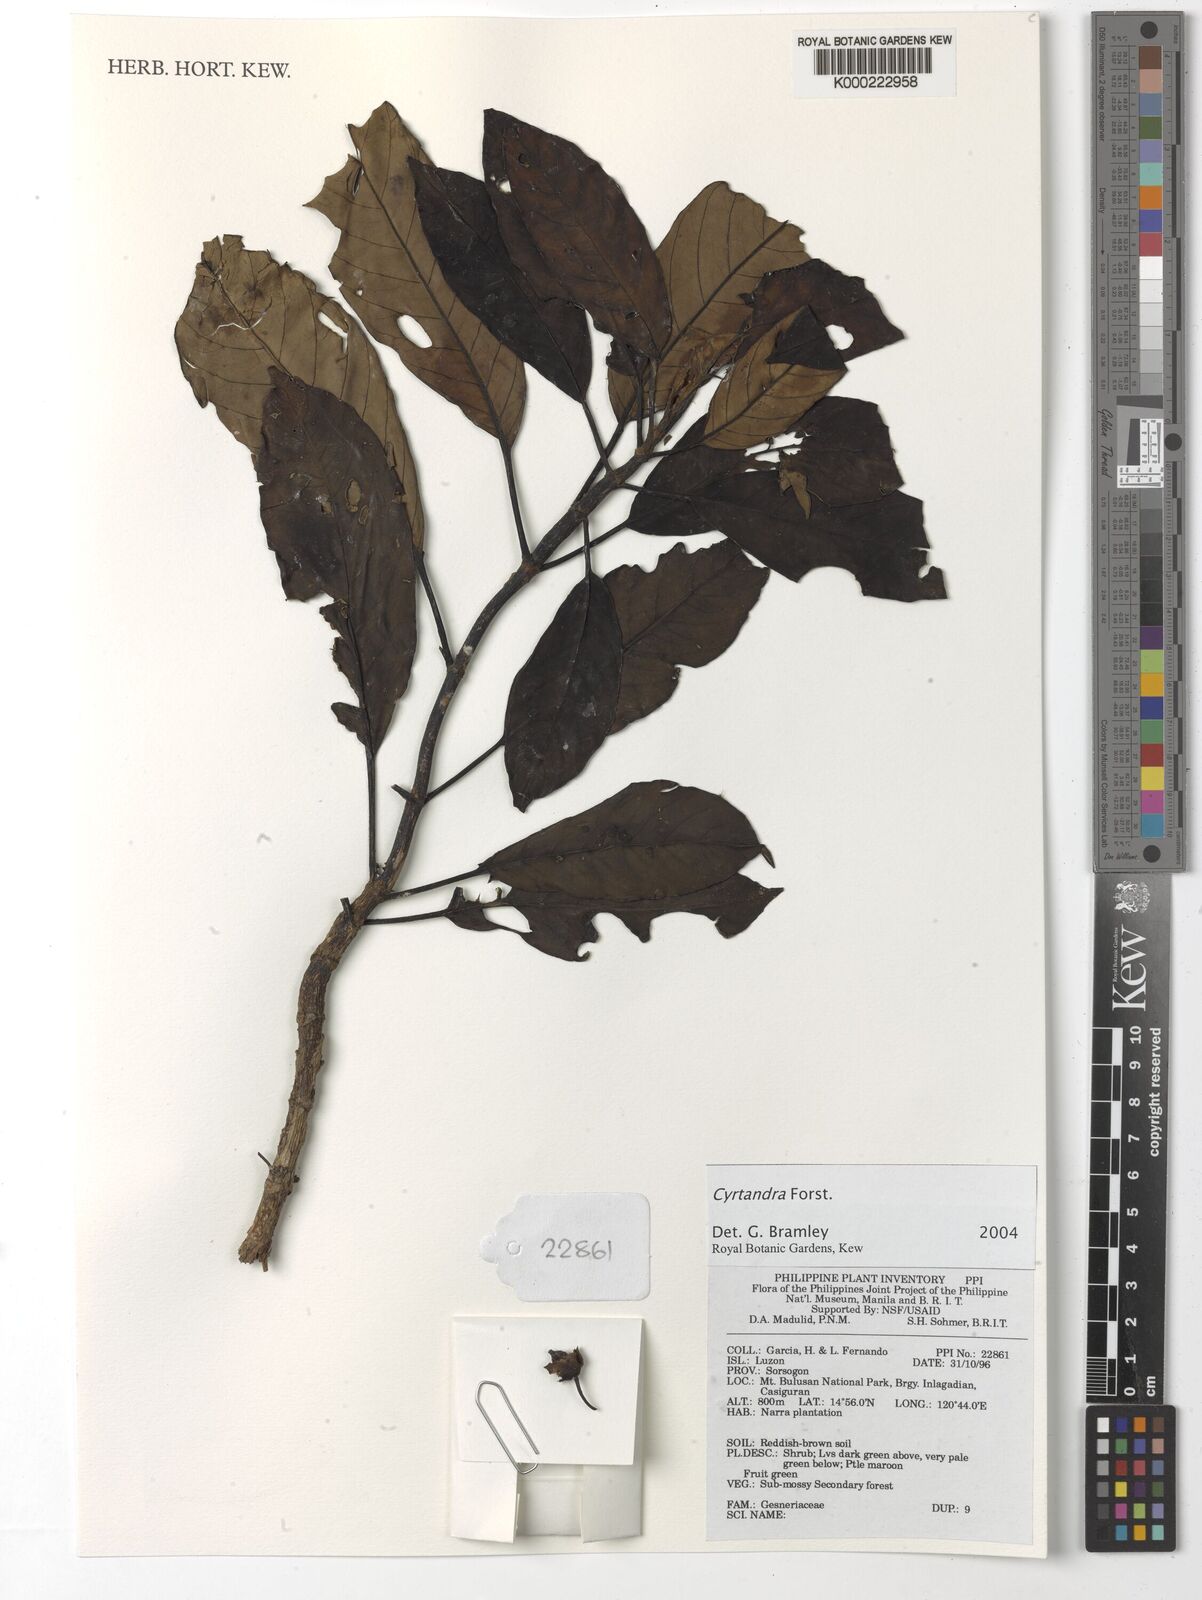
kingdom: Plantae
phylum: Tracheophyta
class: Magnoliopsida
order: Lamiales
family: Gesneriaceae
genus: Cyrtandra
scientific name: Cyrtandra
